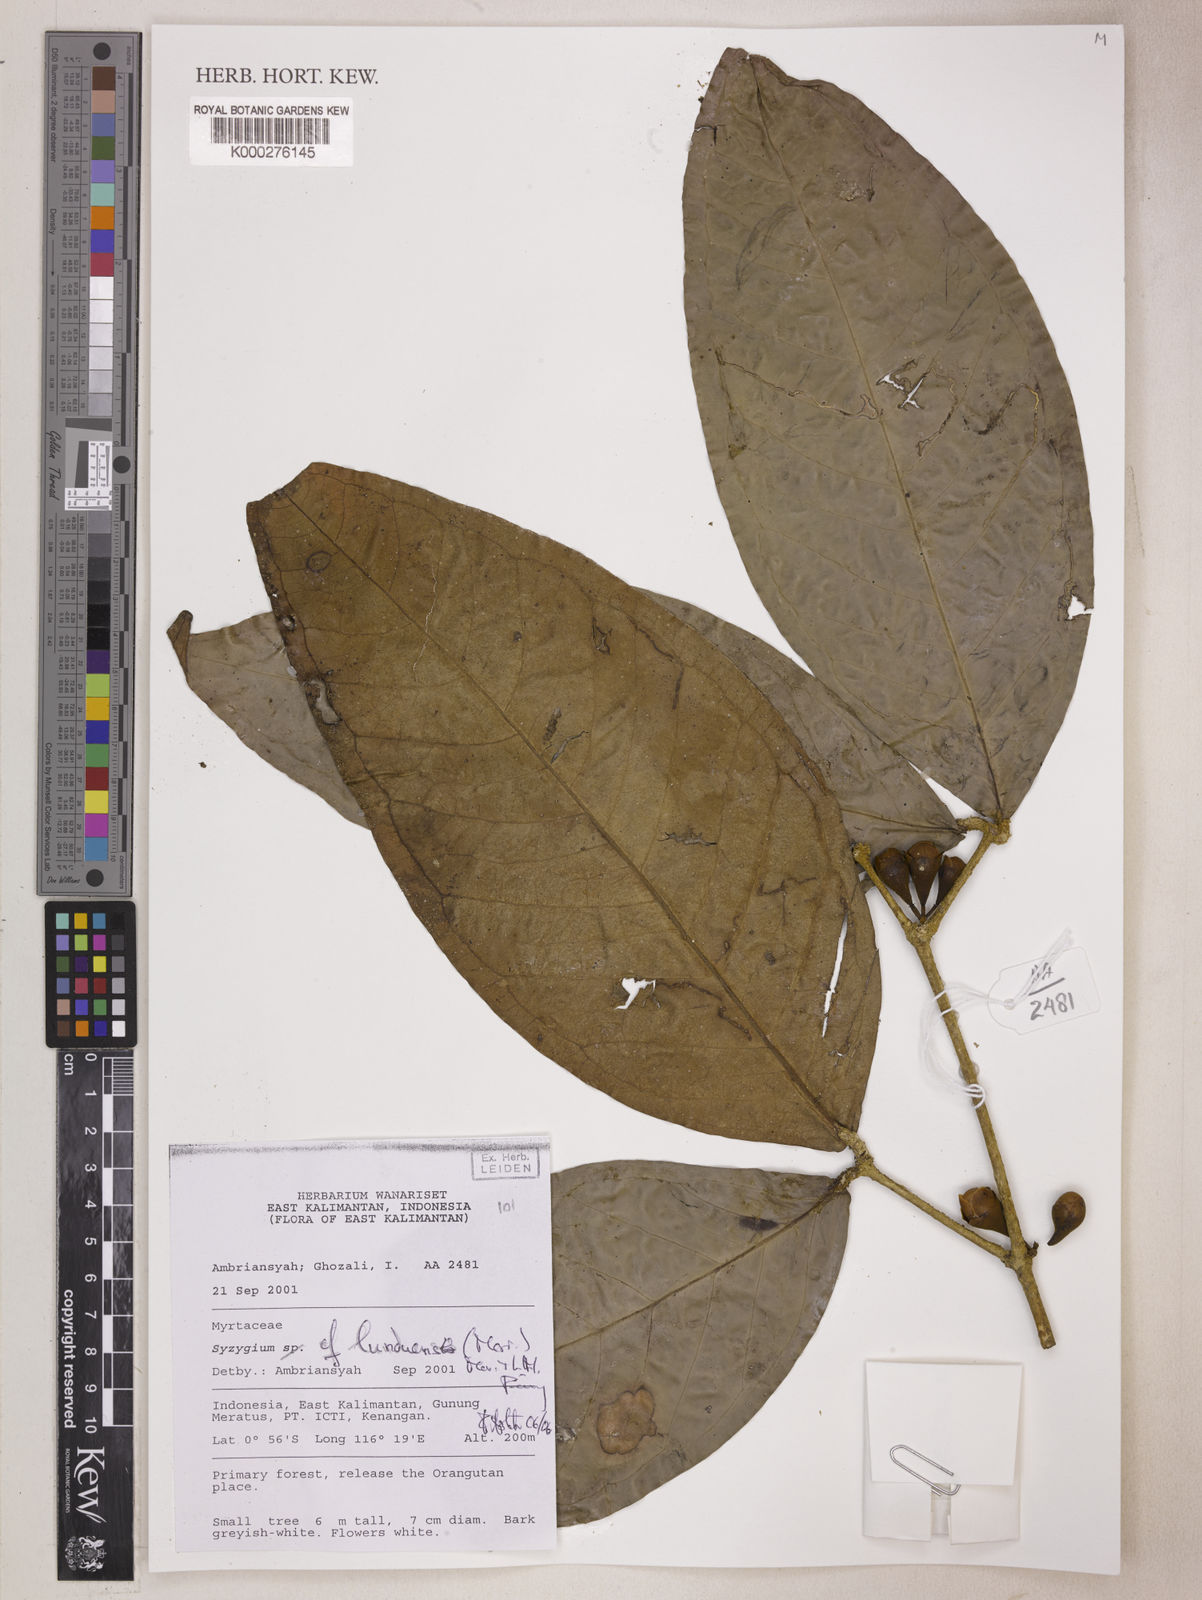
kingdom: Plantae
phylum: Tracheophyta
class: Magnoliopsida
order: Myrtales
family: Myrtaceae
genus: Syzygium
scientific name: Syzygium lunduense
